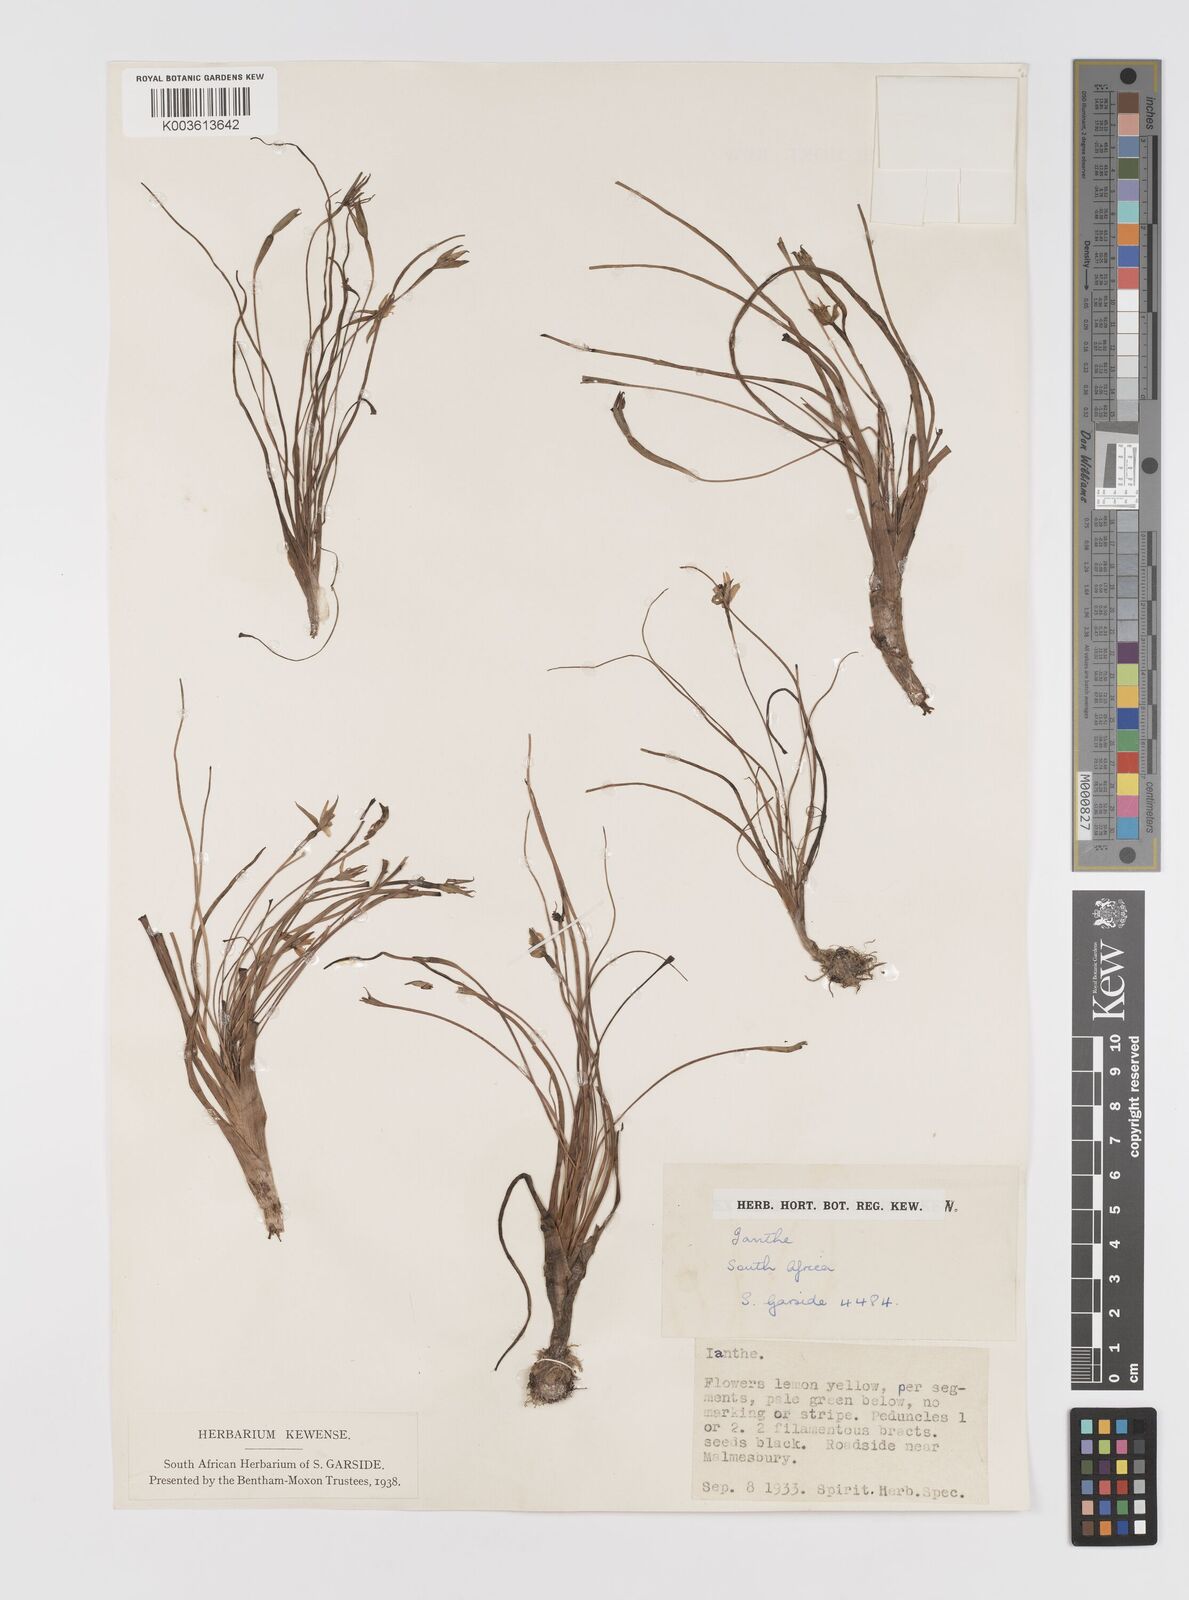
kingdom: Plantae
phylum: Tracheophyta
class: Liliopsida
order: Asparagales
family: Hypoxidaceae
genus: Pauridia
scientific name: Pauridia
